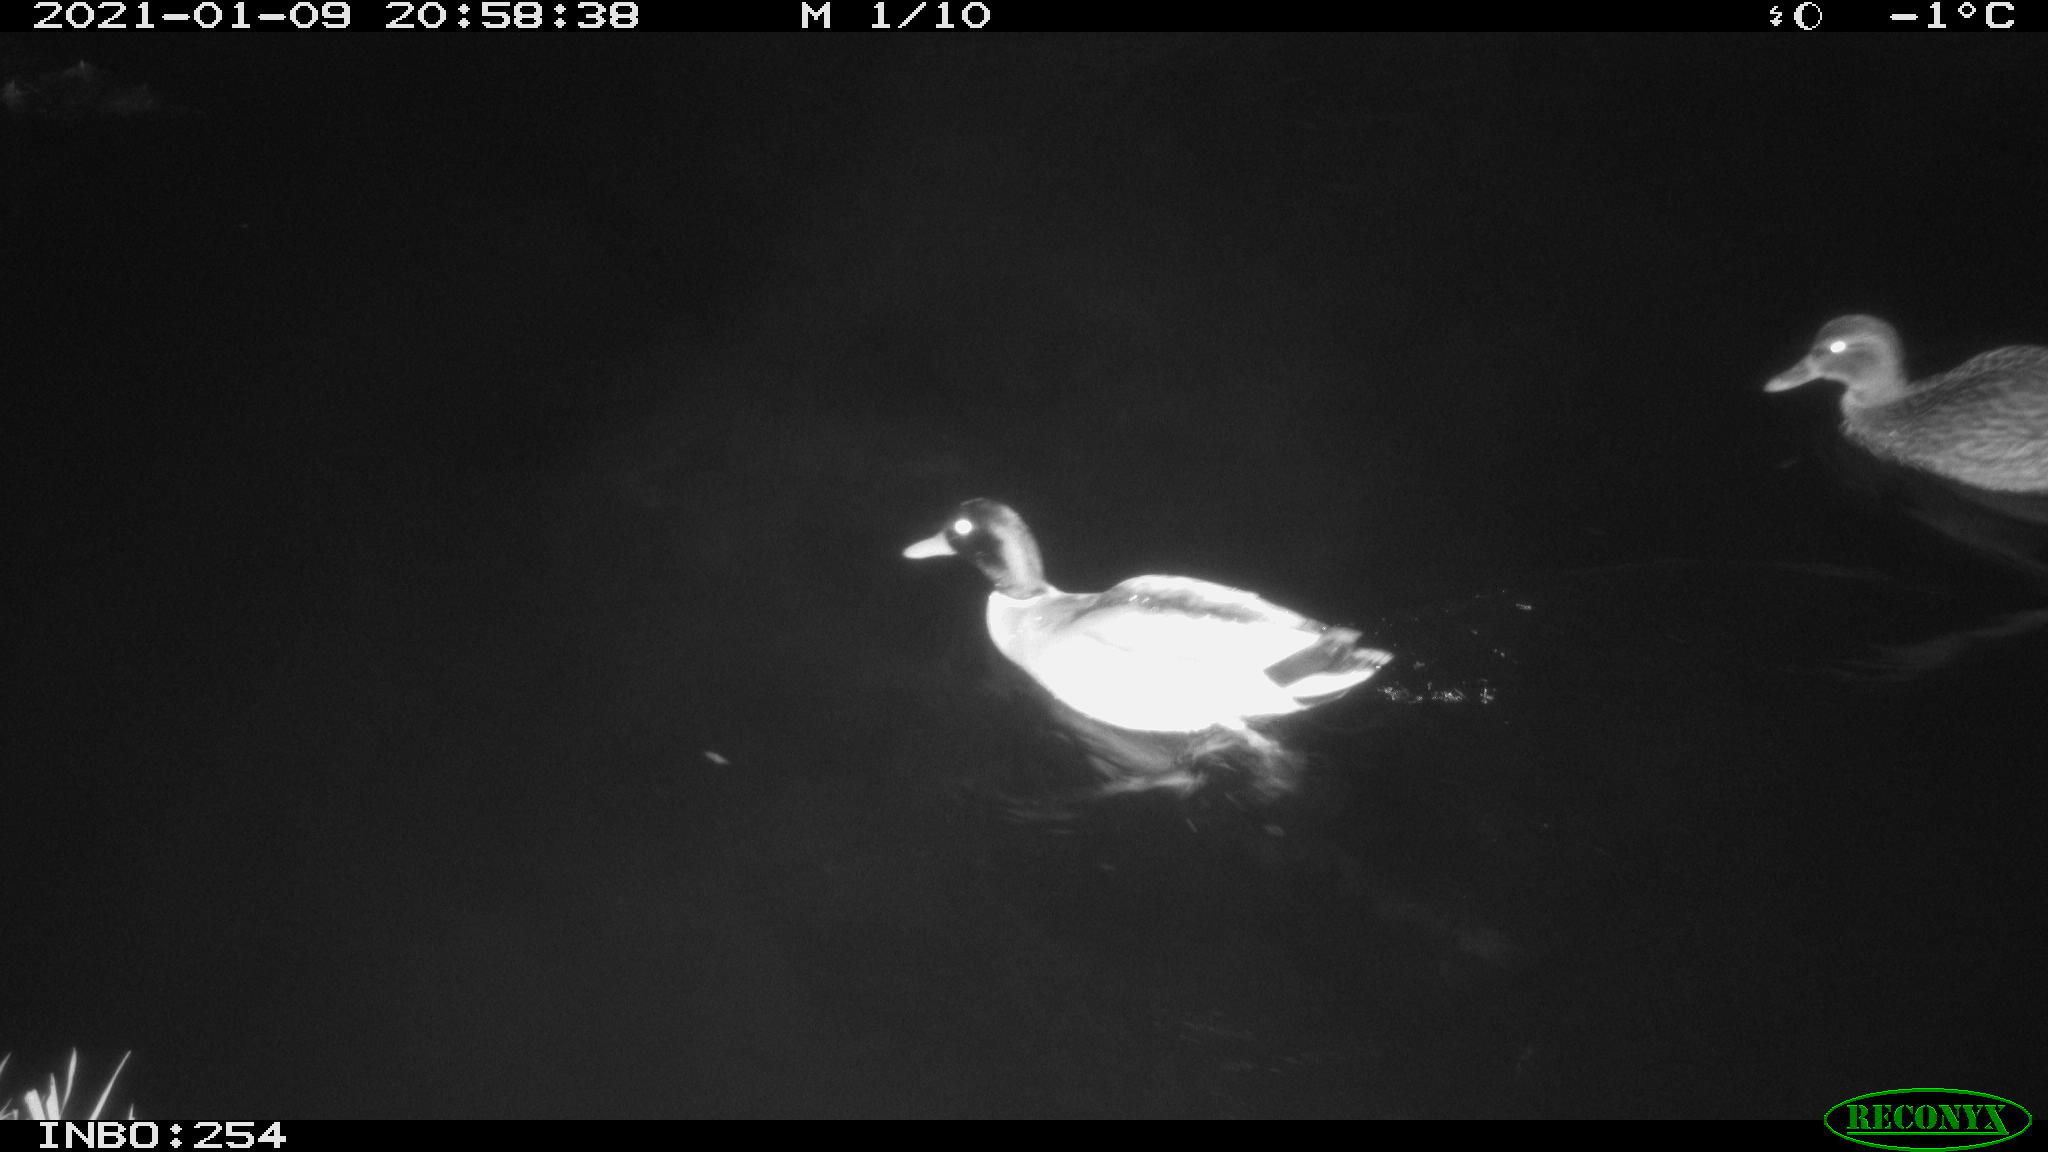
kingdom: Animalia
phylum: Chordata
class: Aves
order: Anseriformes
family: Anatidae
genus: Anas
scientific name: Anas platyrhynchos
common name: Mallard
